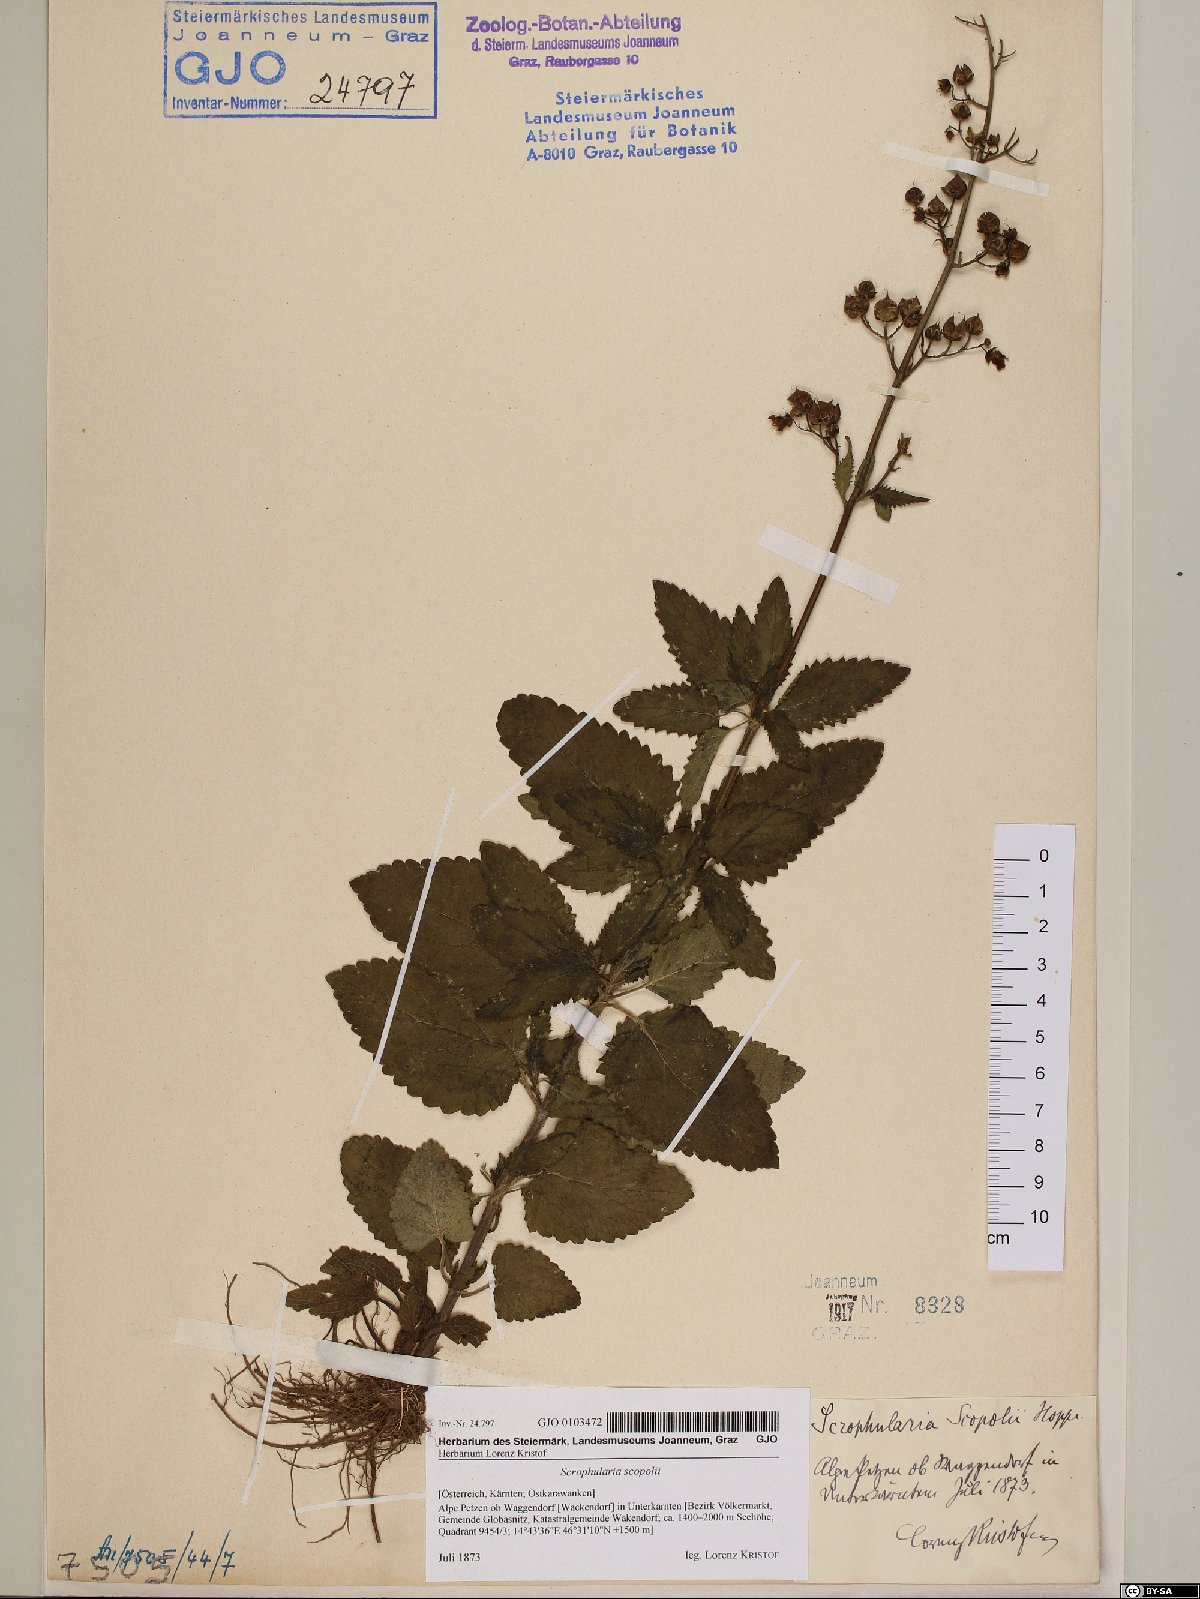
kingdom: Plantae
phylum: Tracheophyta
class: Magnoliopsida
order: Lamiales
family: Scrophulariaceae
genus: Scrophularia
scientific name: Scrophularia scopolii
